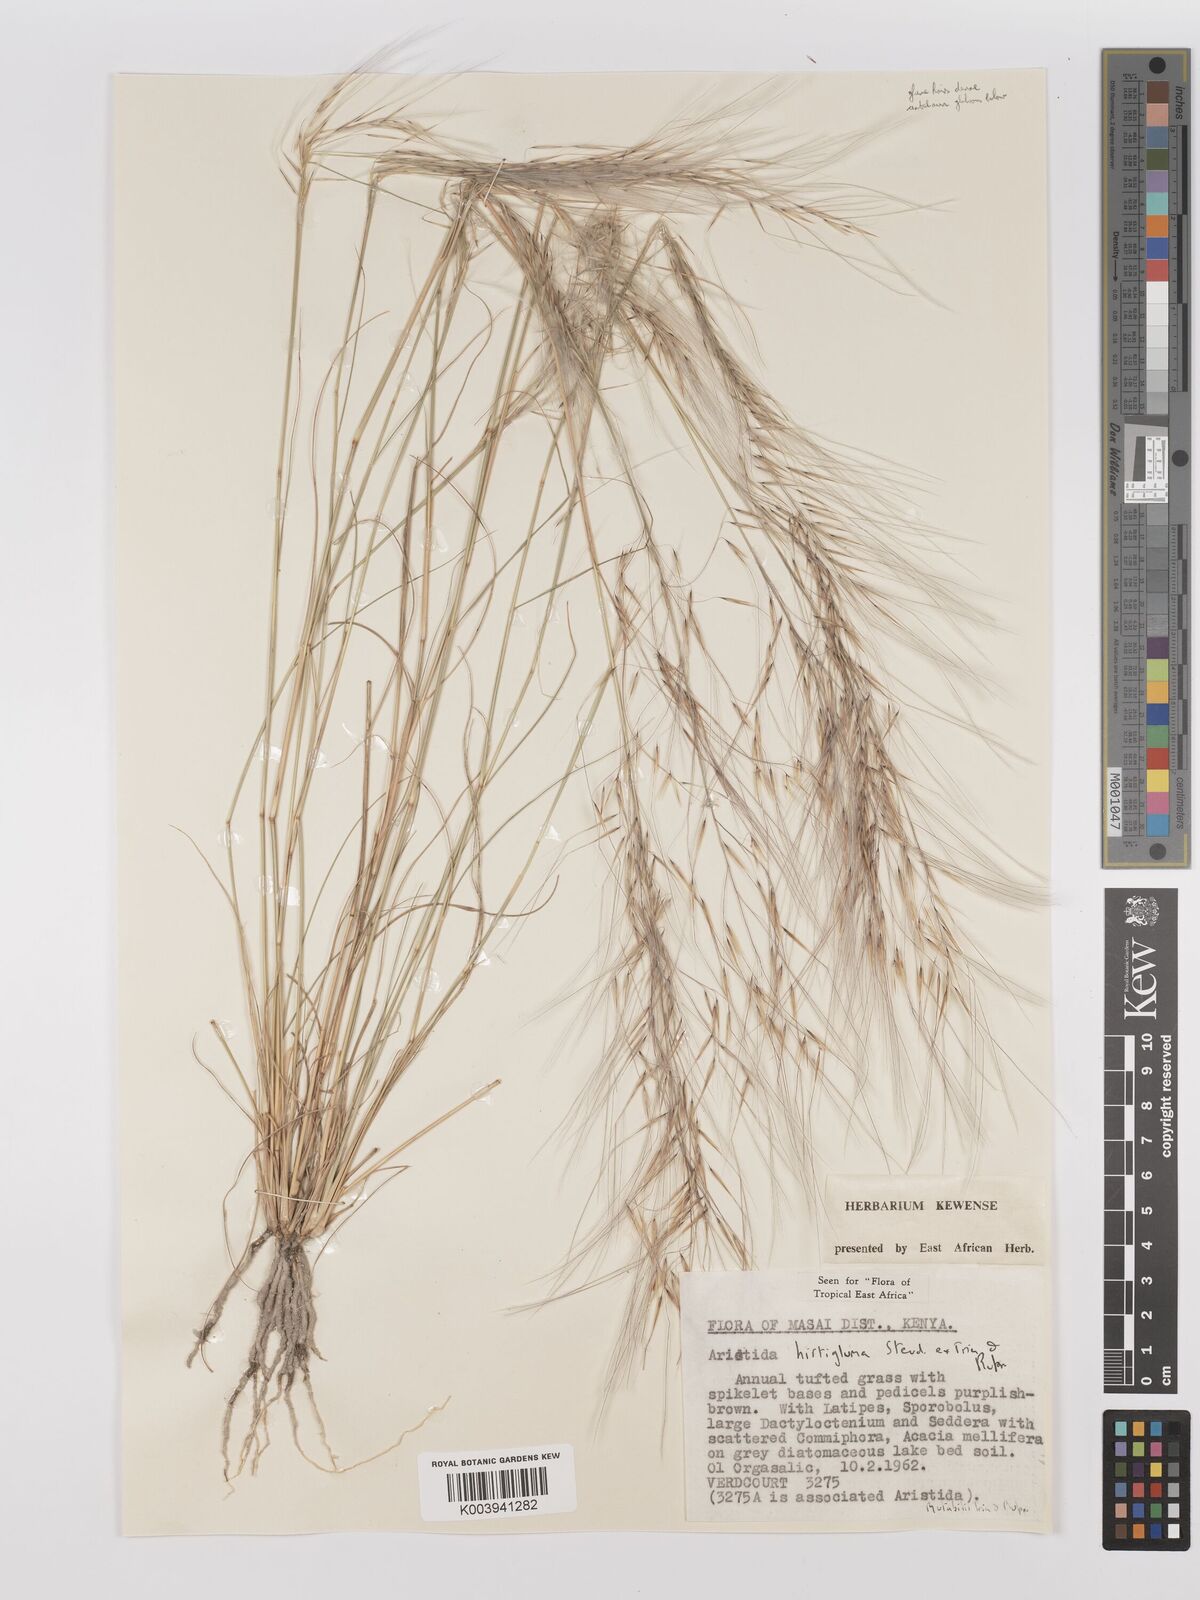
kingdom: Plantae
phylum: Tracheophyta
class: Liliopsida
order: Poales
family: Poaceae
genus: Stipagrostis
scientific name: Stipagrostis hirtigluma
